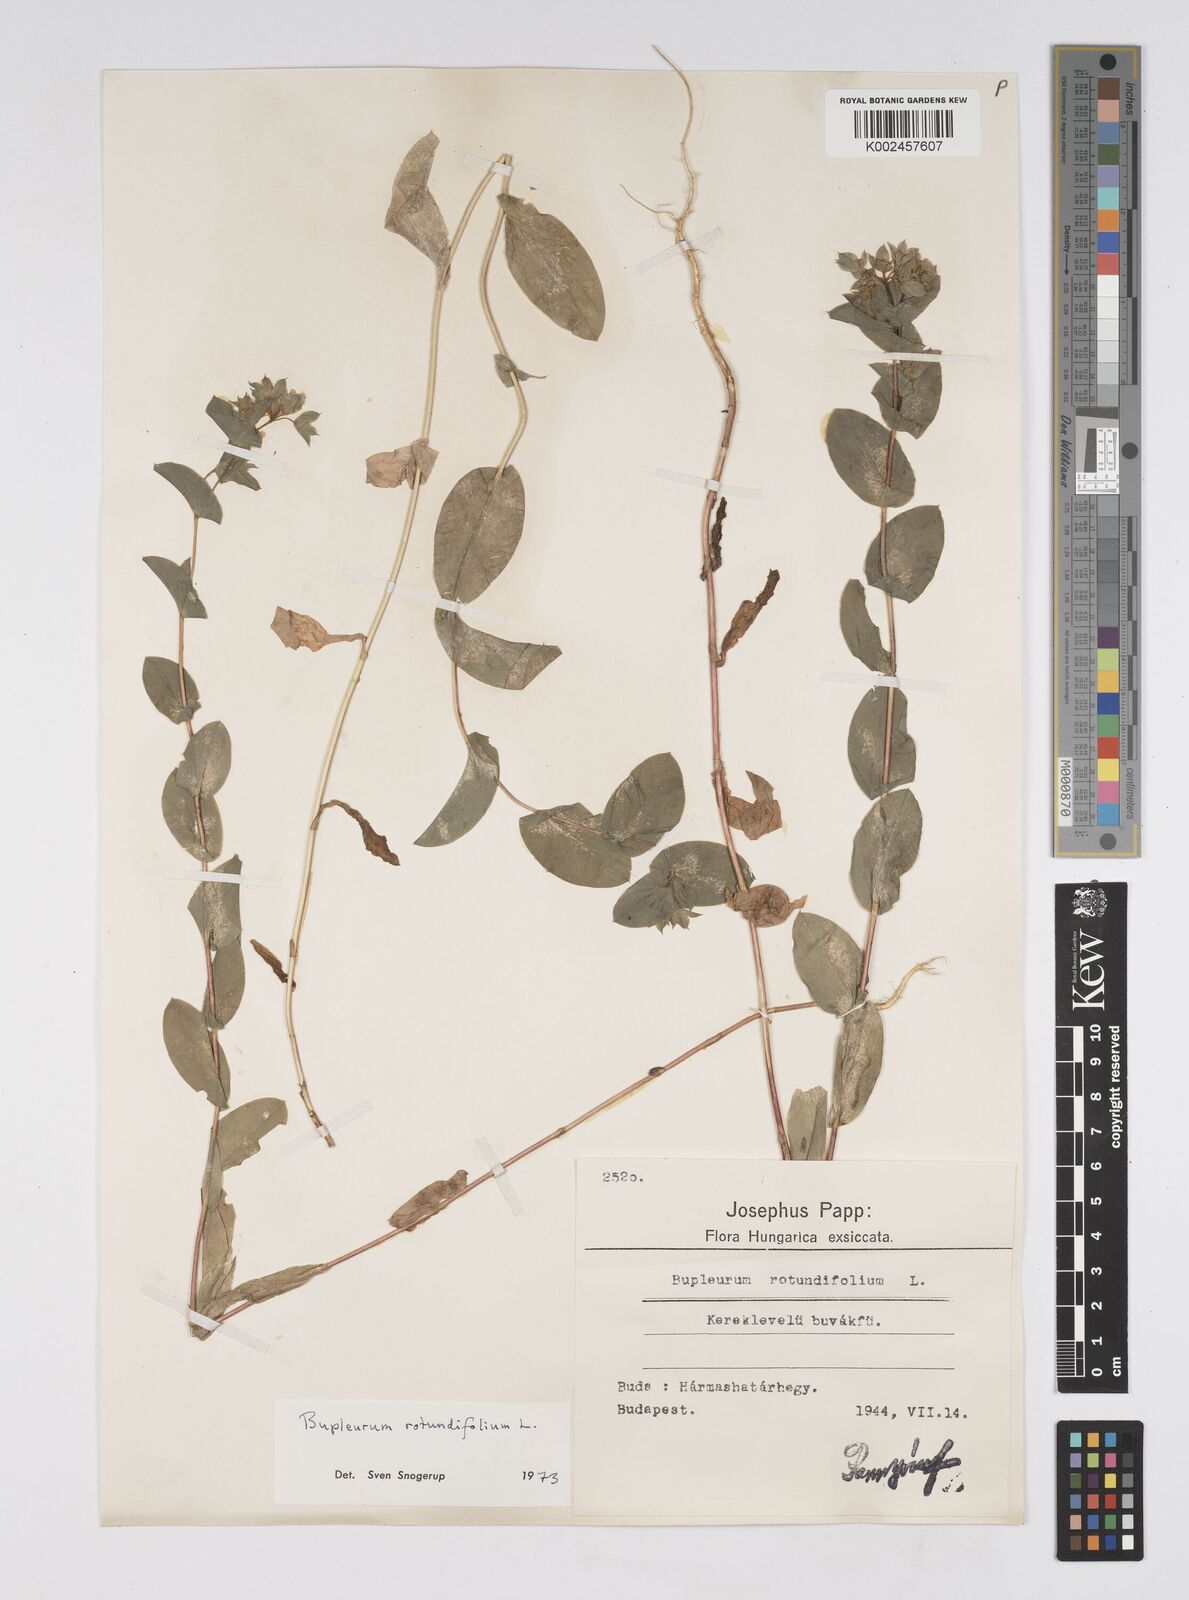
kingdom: Plantae
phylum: Tracheophyta
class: Magnoliopsida
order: Apiales
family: Apiaceae
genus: Bupleurum
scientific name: Bupleurum rotundifolium
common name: Thorow-wax
